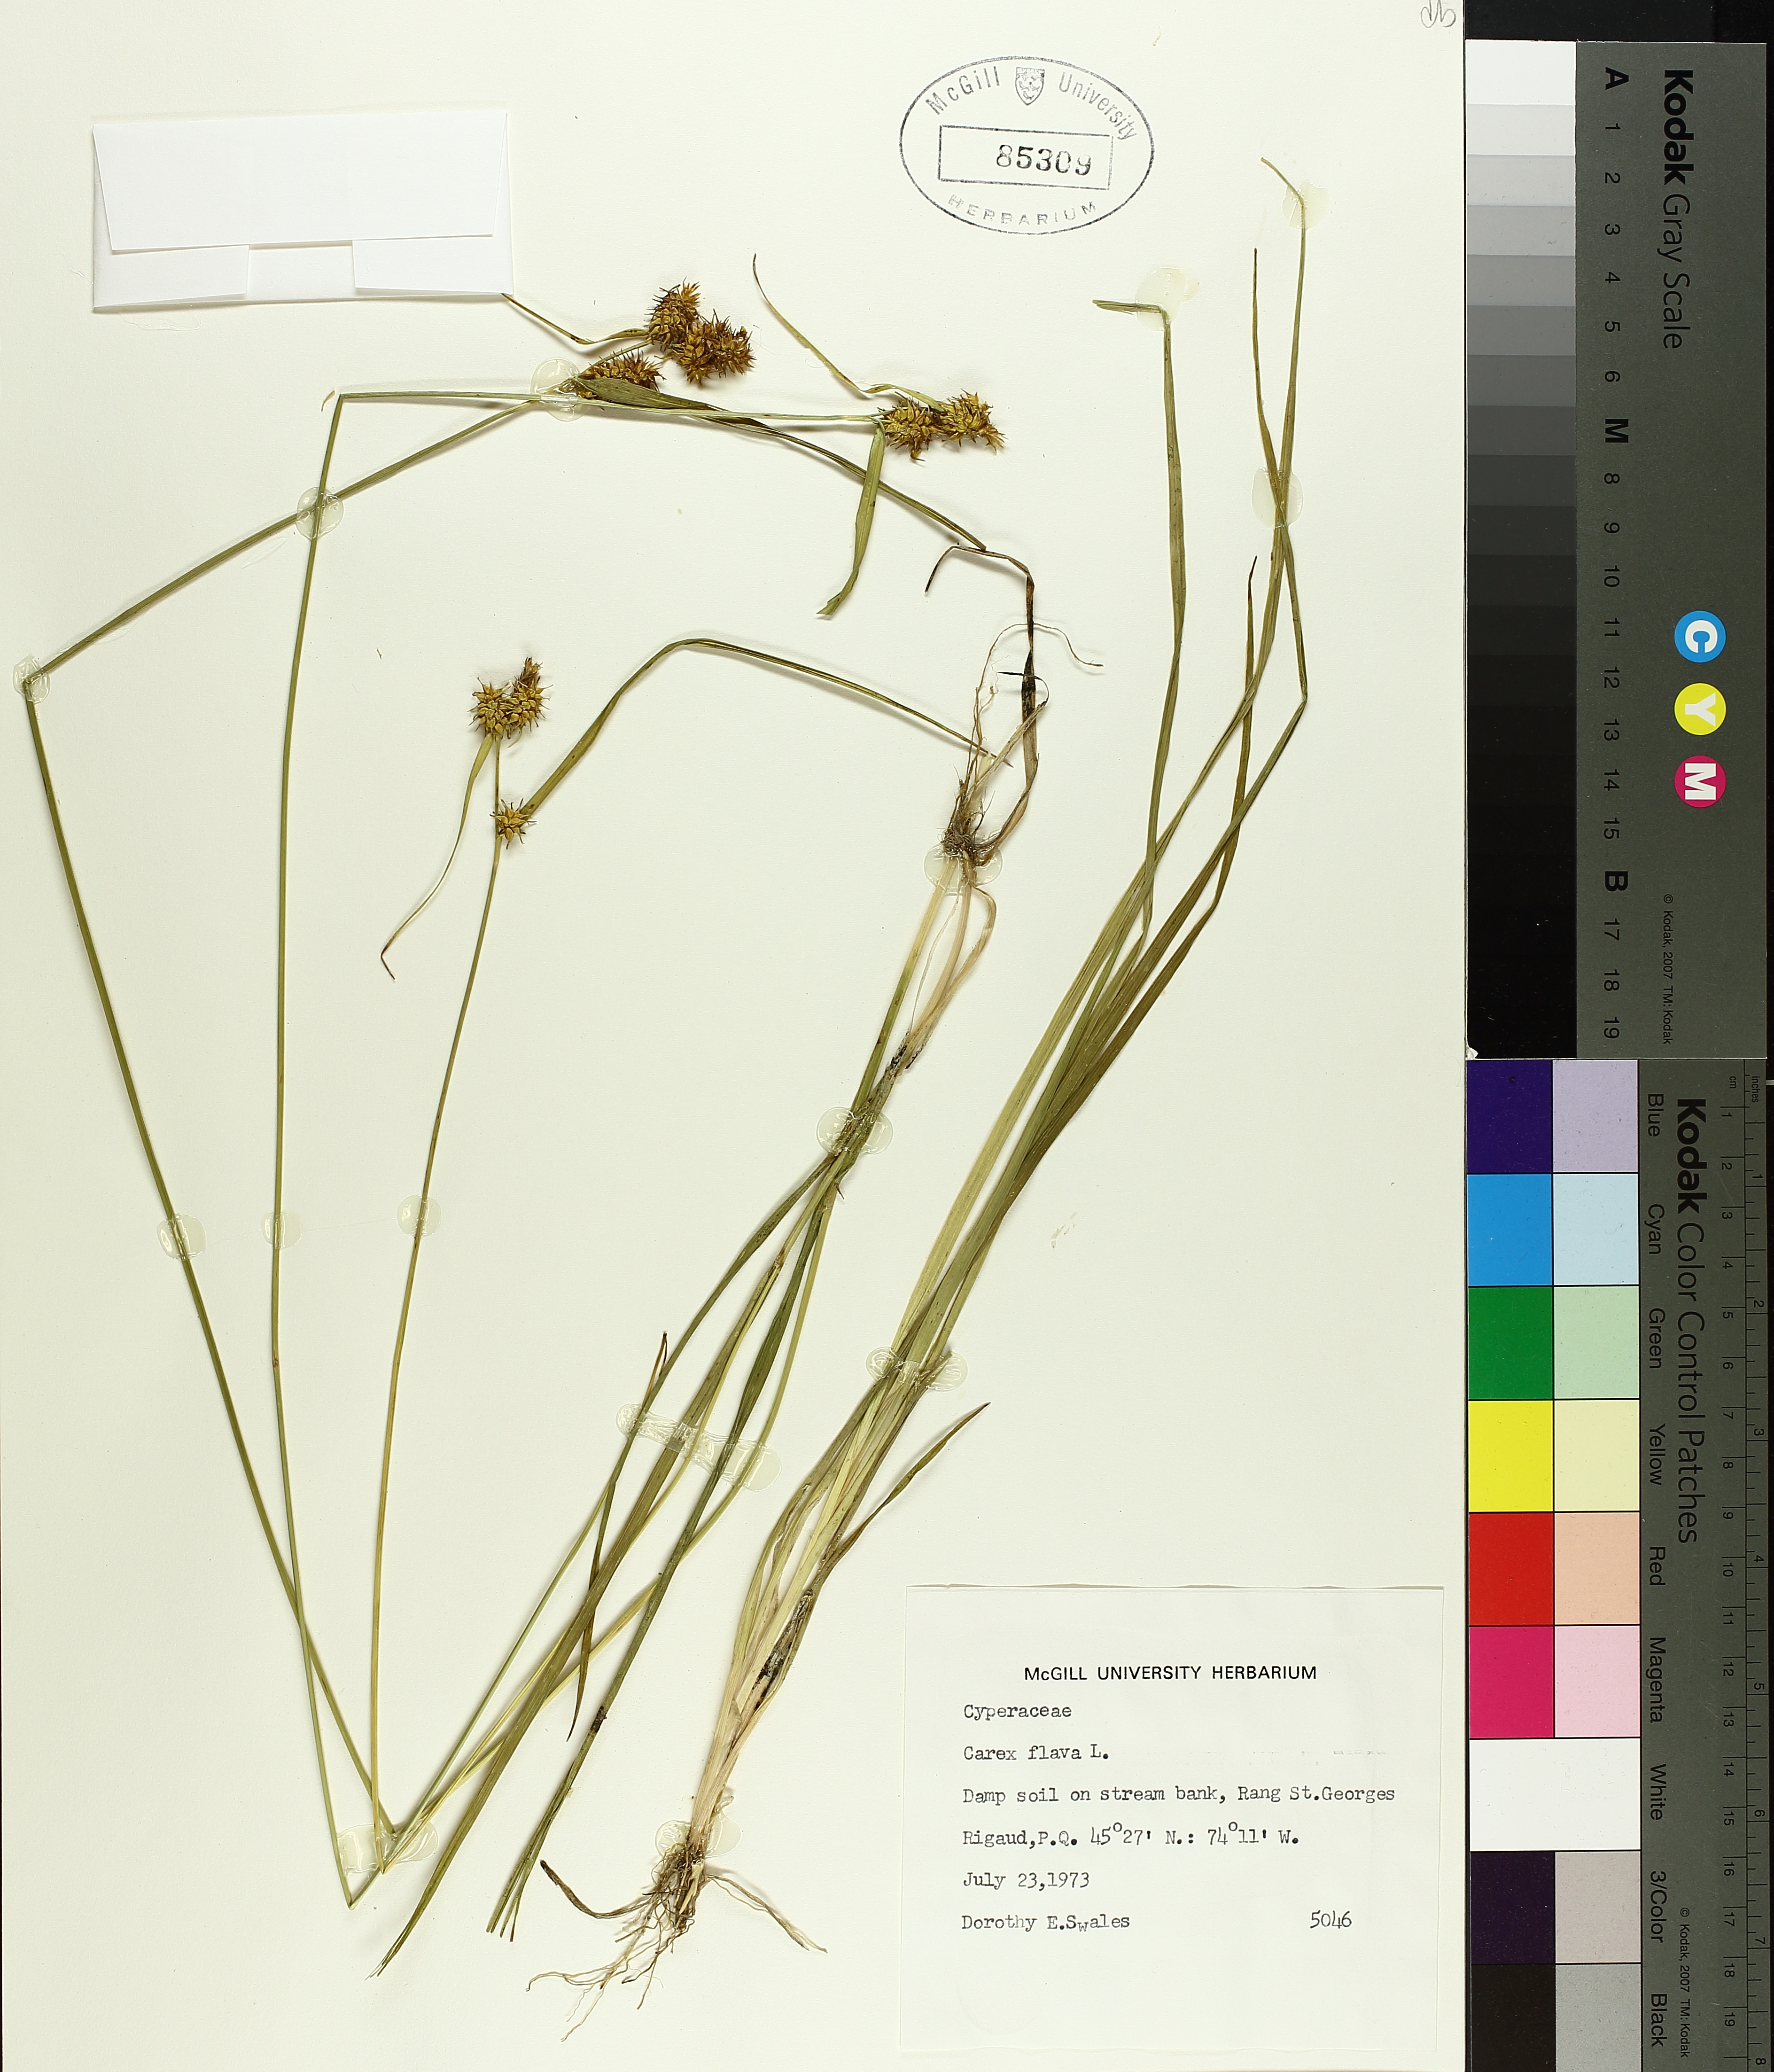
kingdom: Plantae
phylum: Tracheophyta
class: Liliopsida
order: Poales
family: Cyperaceae
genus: Carex
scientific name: Carex flava
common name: Large yellow-sedge
